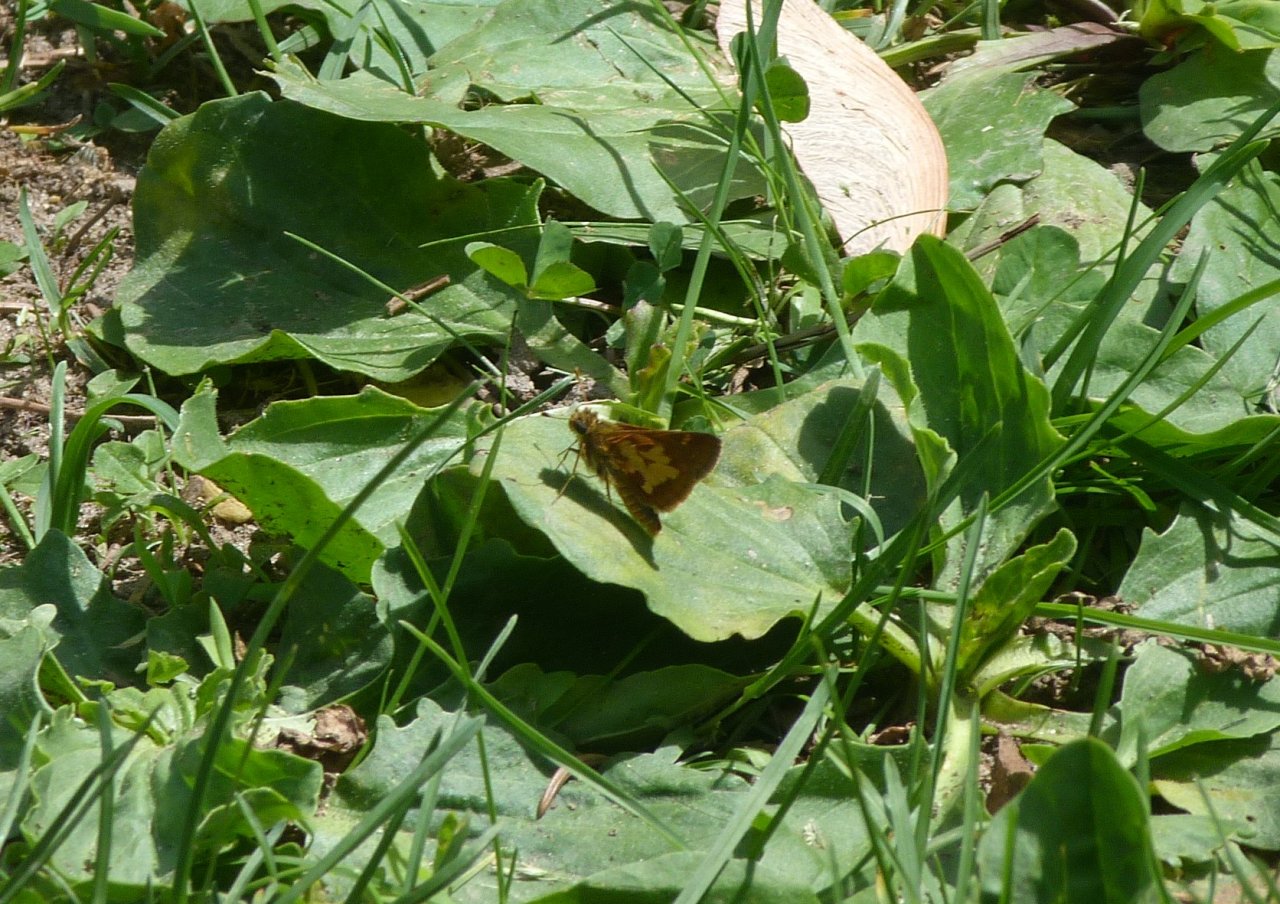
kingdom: Animalia
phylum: Arthropoda
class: Insecta
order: Lepidoptera
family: Hesperiidae
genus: Polites
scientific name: Polites coras
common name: Peck's Skipper
